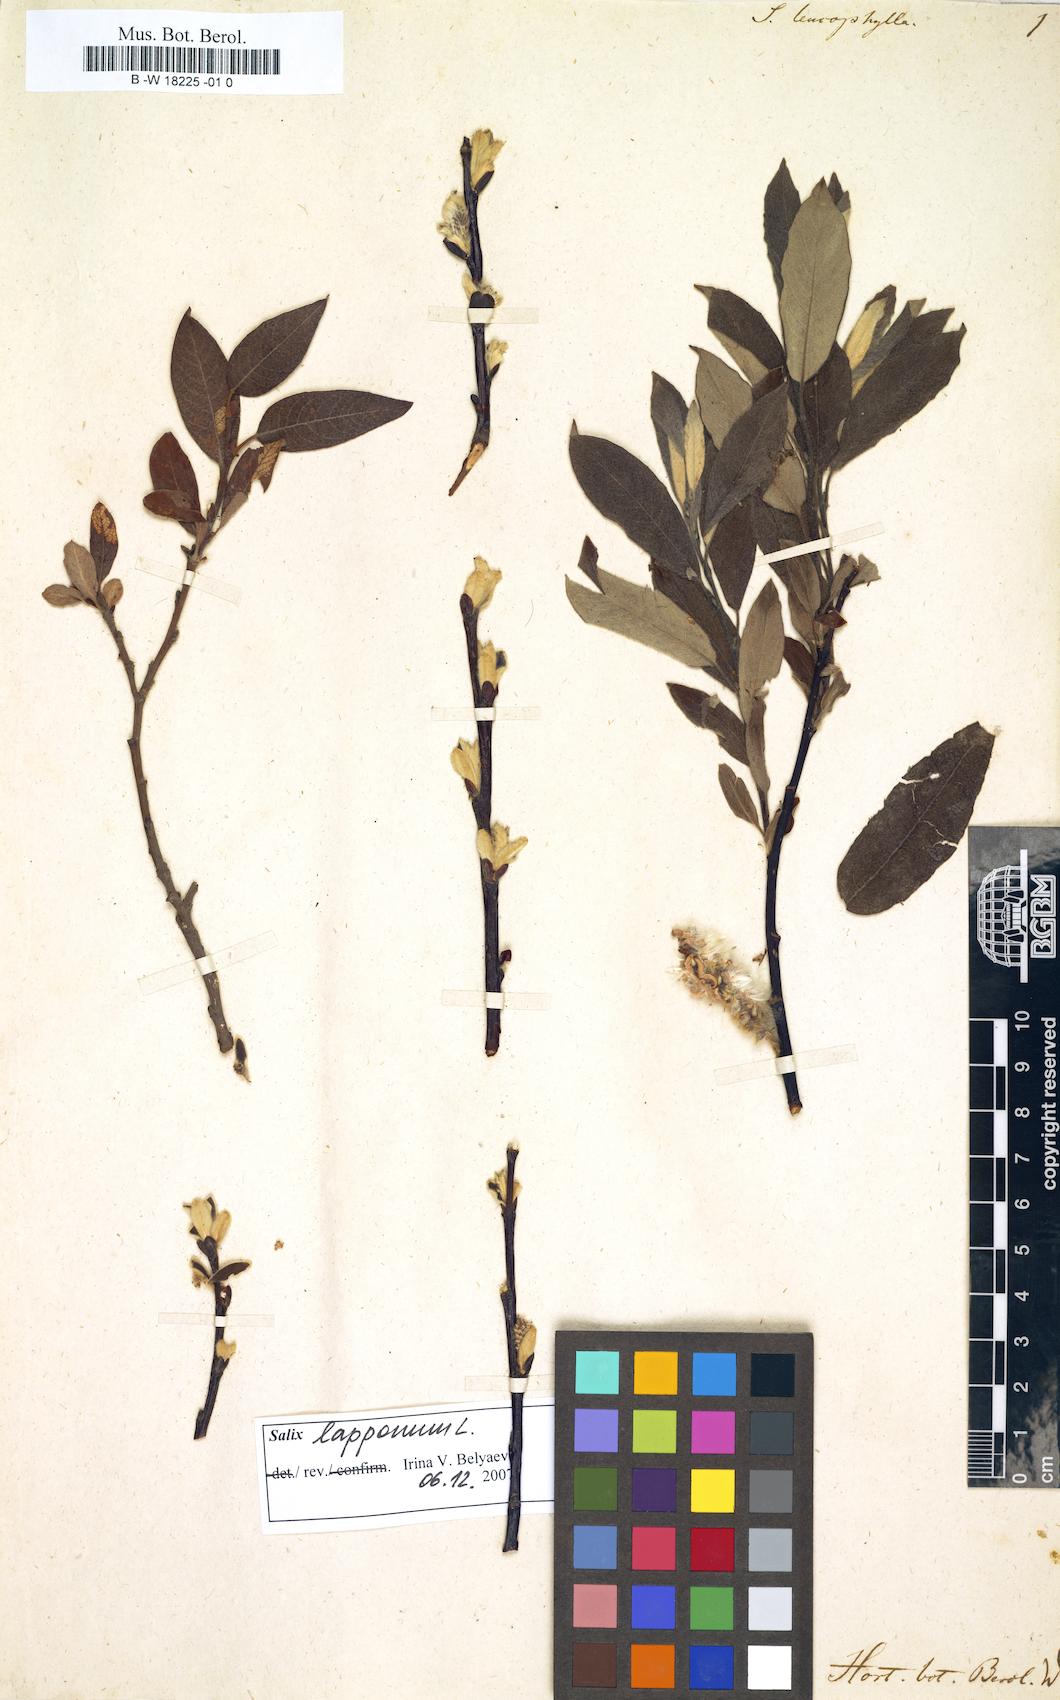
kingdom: Plantae
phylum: Tracheophyta
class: Magnoliopsida
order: Malpighiales
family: Salicaceae
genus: Salix
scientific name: Salix lapponum
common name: Downy willow
